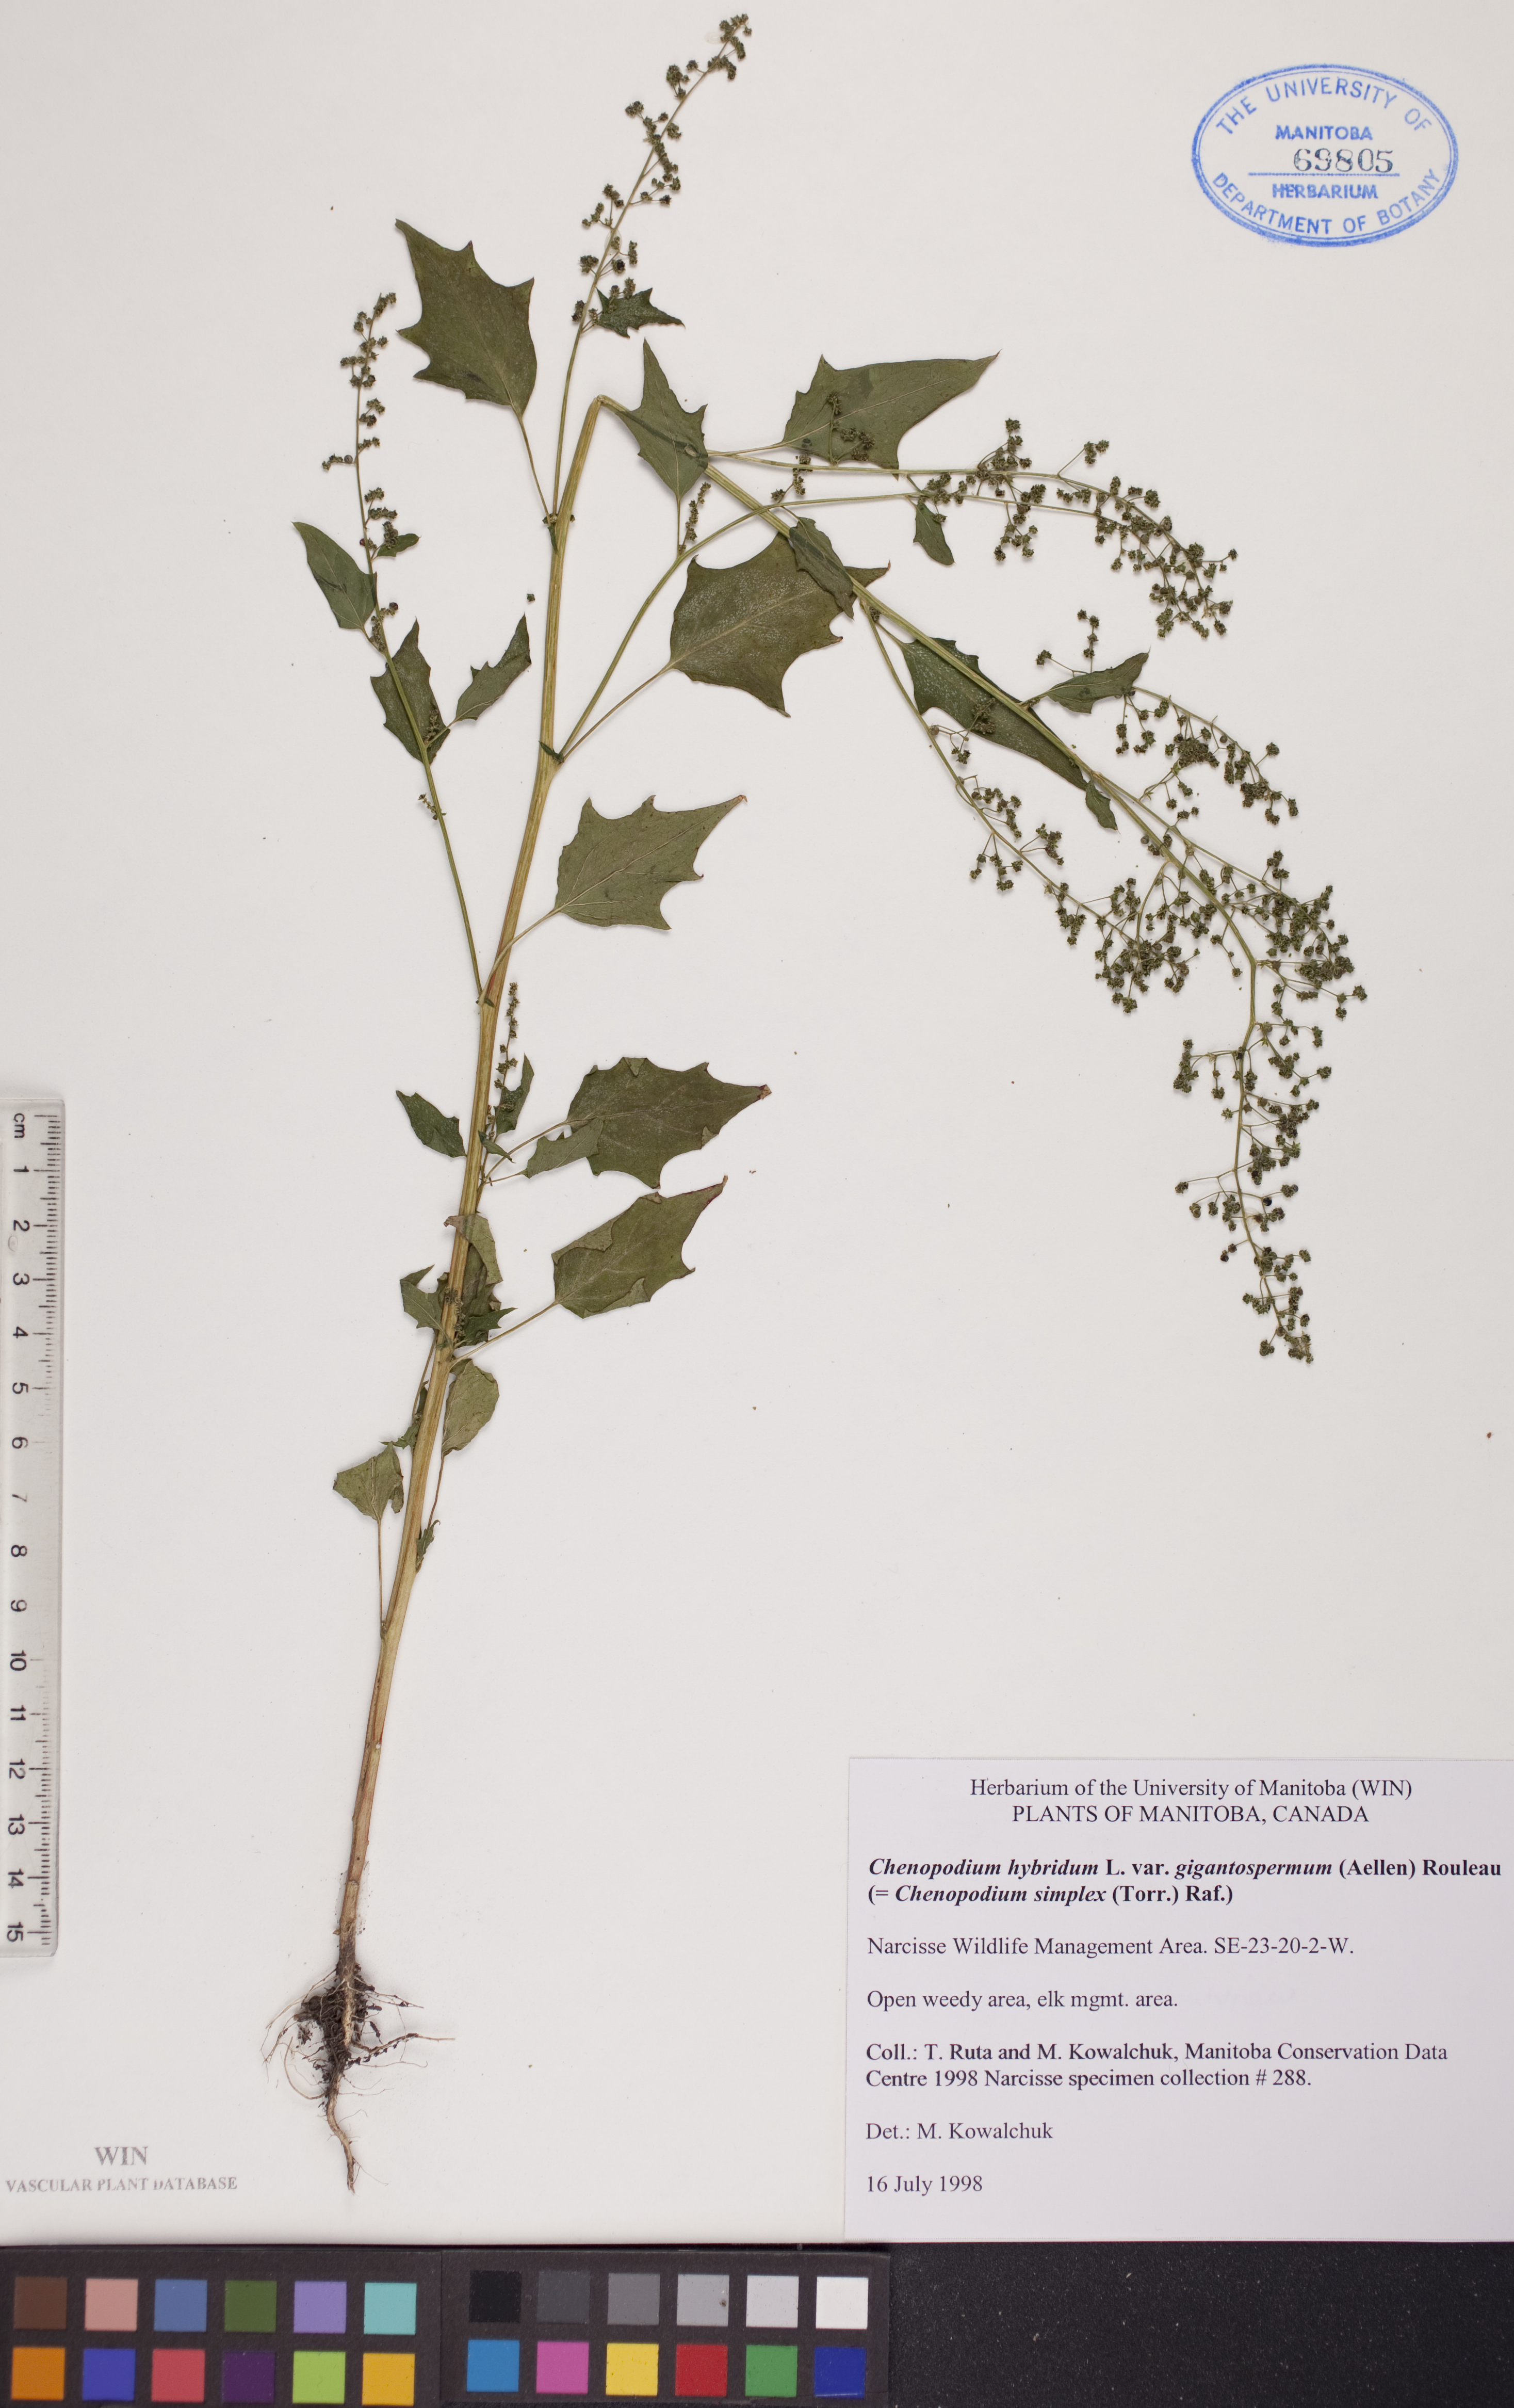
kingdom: Plantae
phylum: Tracheophyta
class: Magnoliopsida
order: Caryophyllales
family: Amaranthaceae
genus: Chenopodiastrum
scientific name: Chenopodiastrum simplex
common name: Large-seed goosefoot
